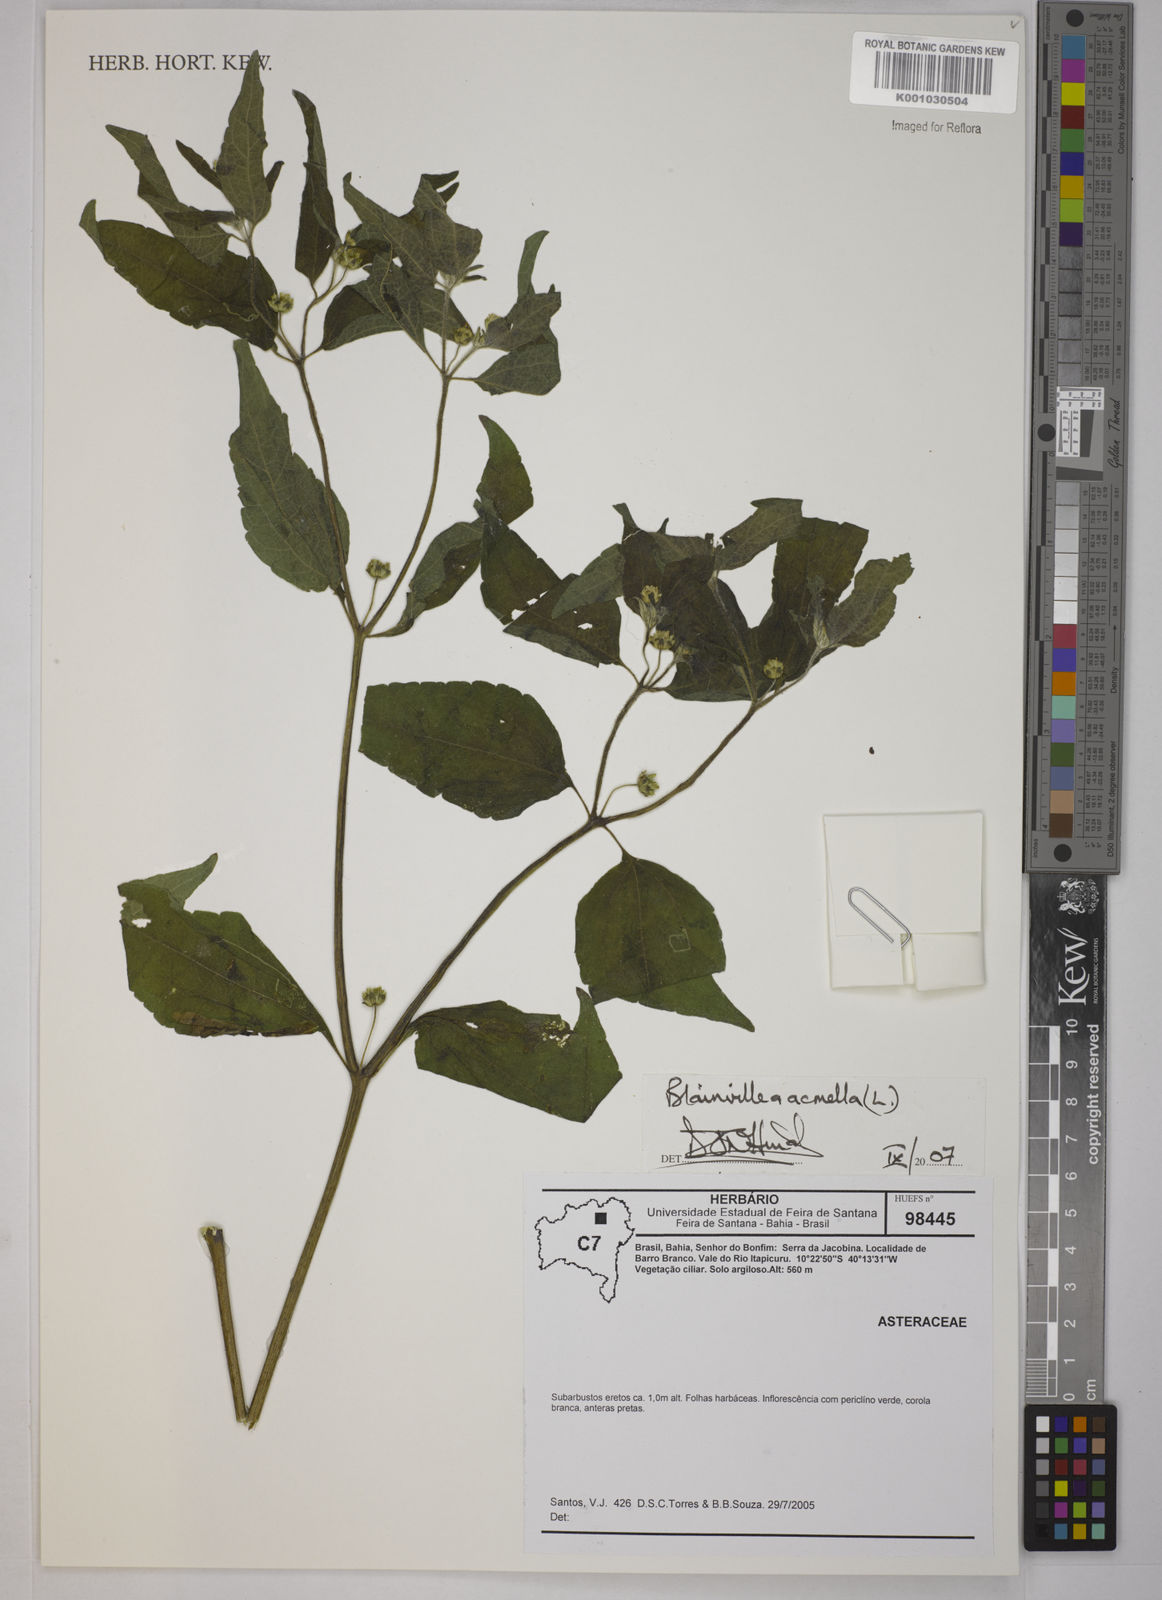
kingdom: Plantae
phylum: Tracheophyta
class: Magnoliopsida
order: Asterales
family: Asteraceae
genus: Blainvillea
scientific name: Blainvillea acmella
